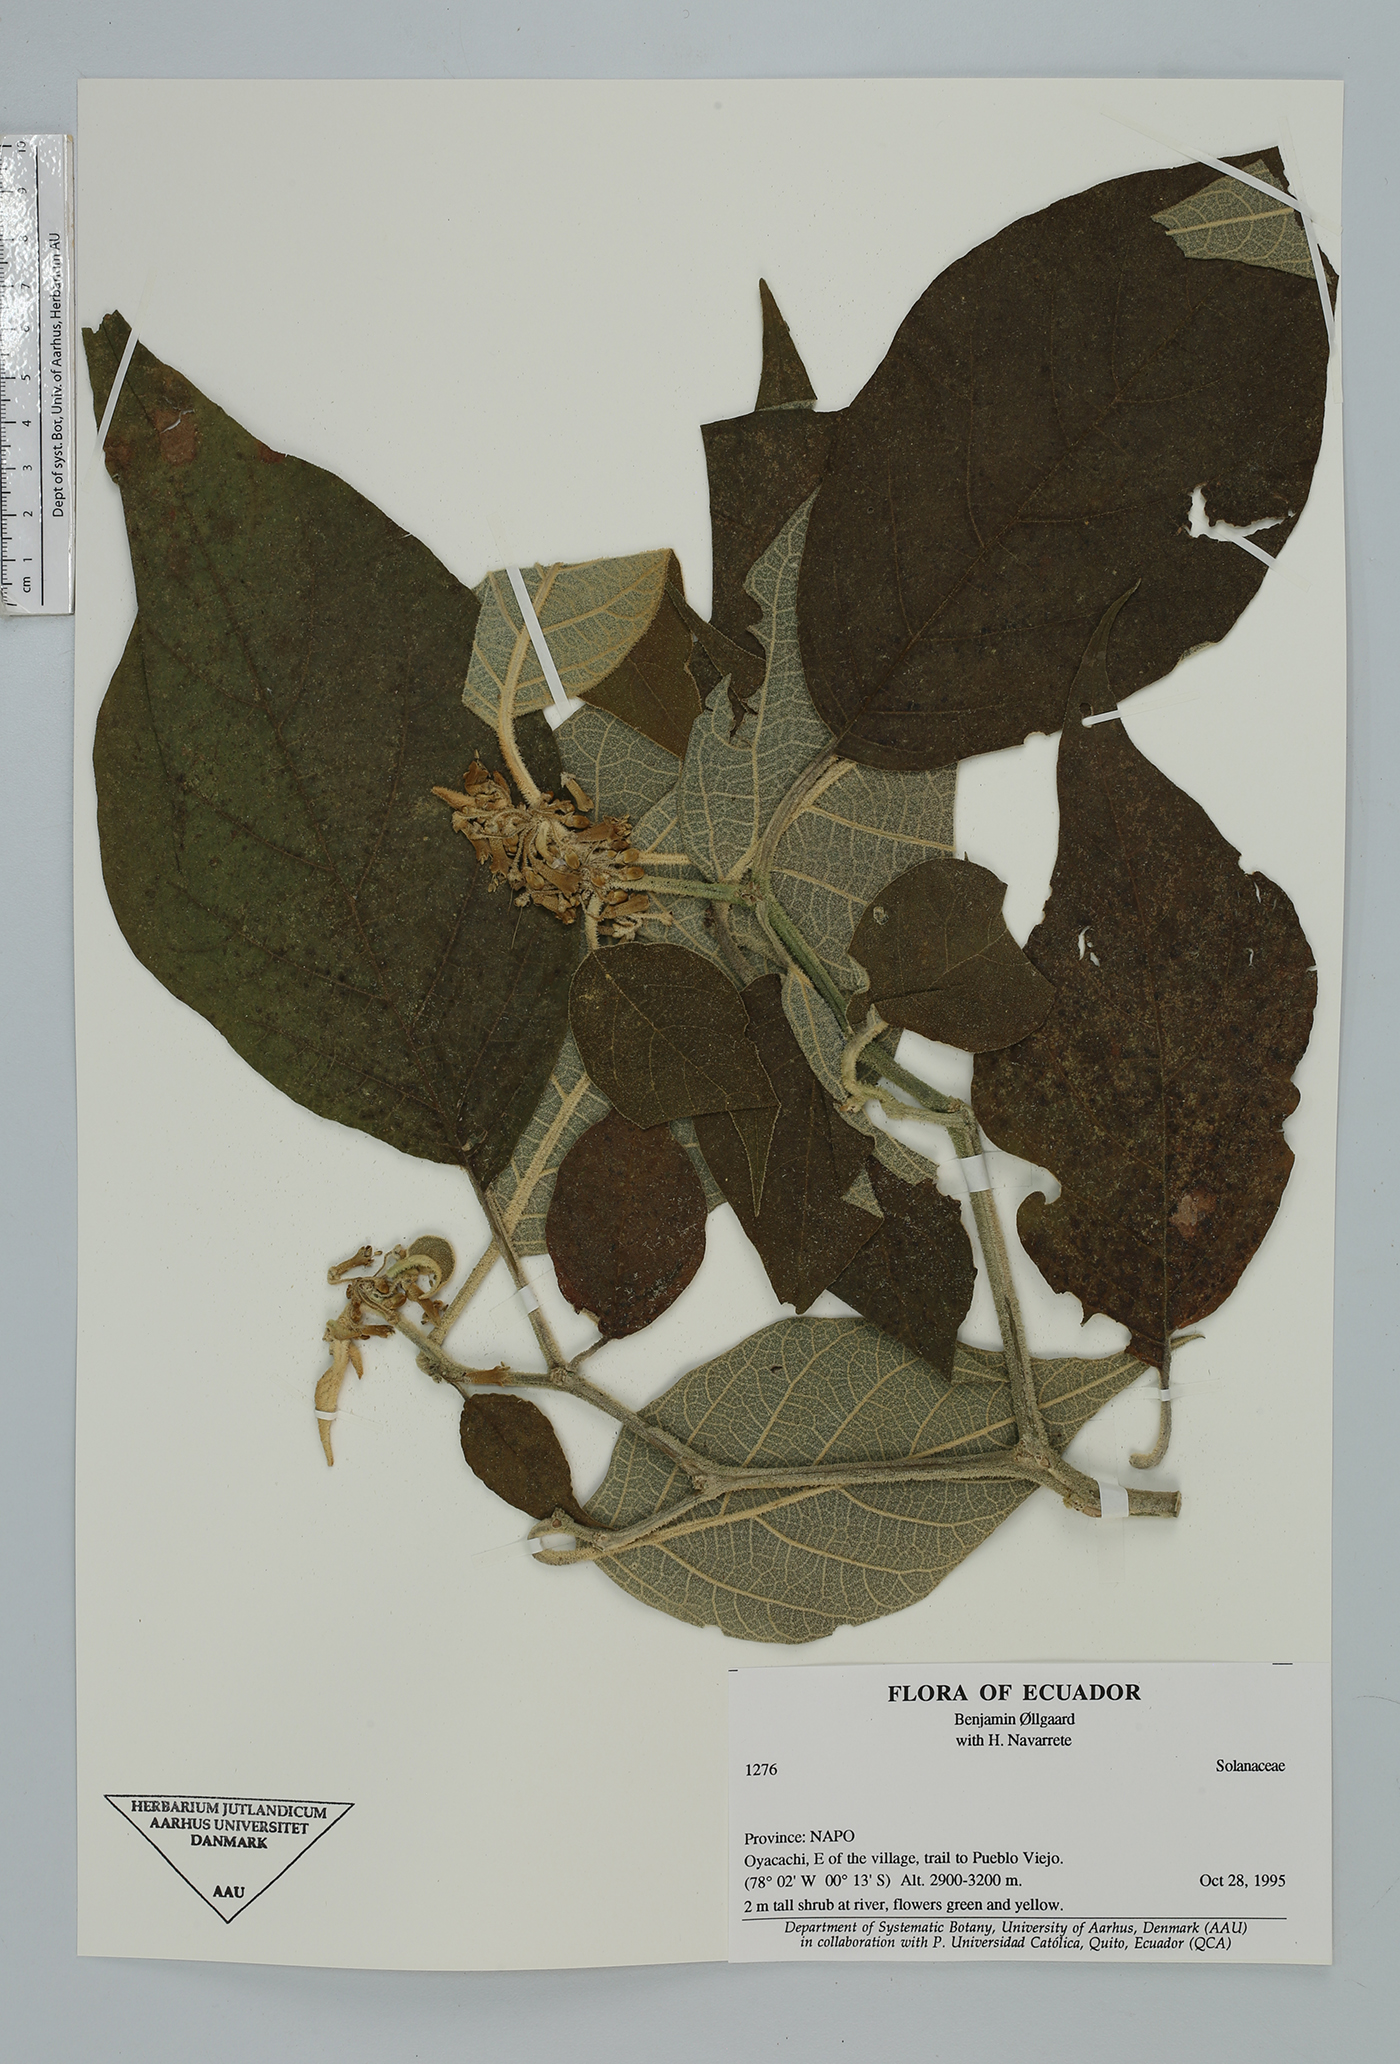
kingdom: Plantae
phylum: Tracheophyta
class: Magnoliopsida
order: Solanales
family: Solanaceae
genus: Saracha
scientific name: Saracha nigribaccata
